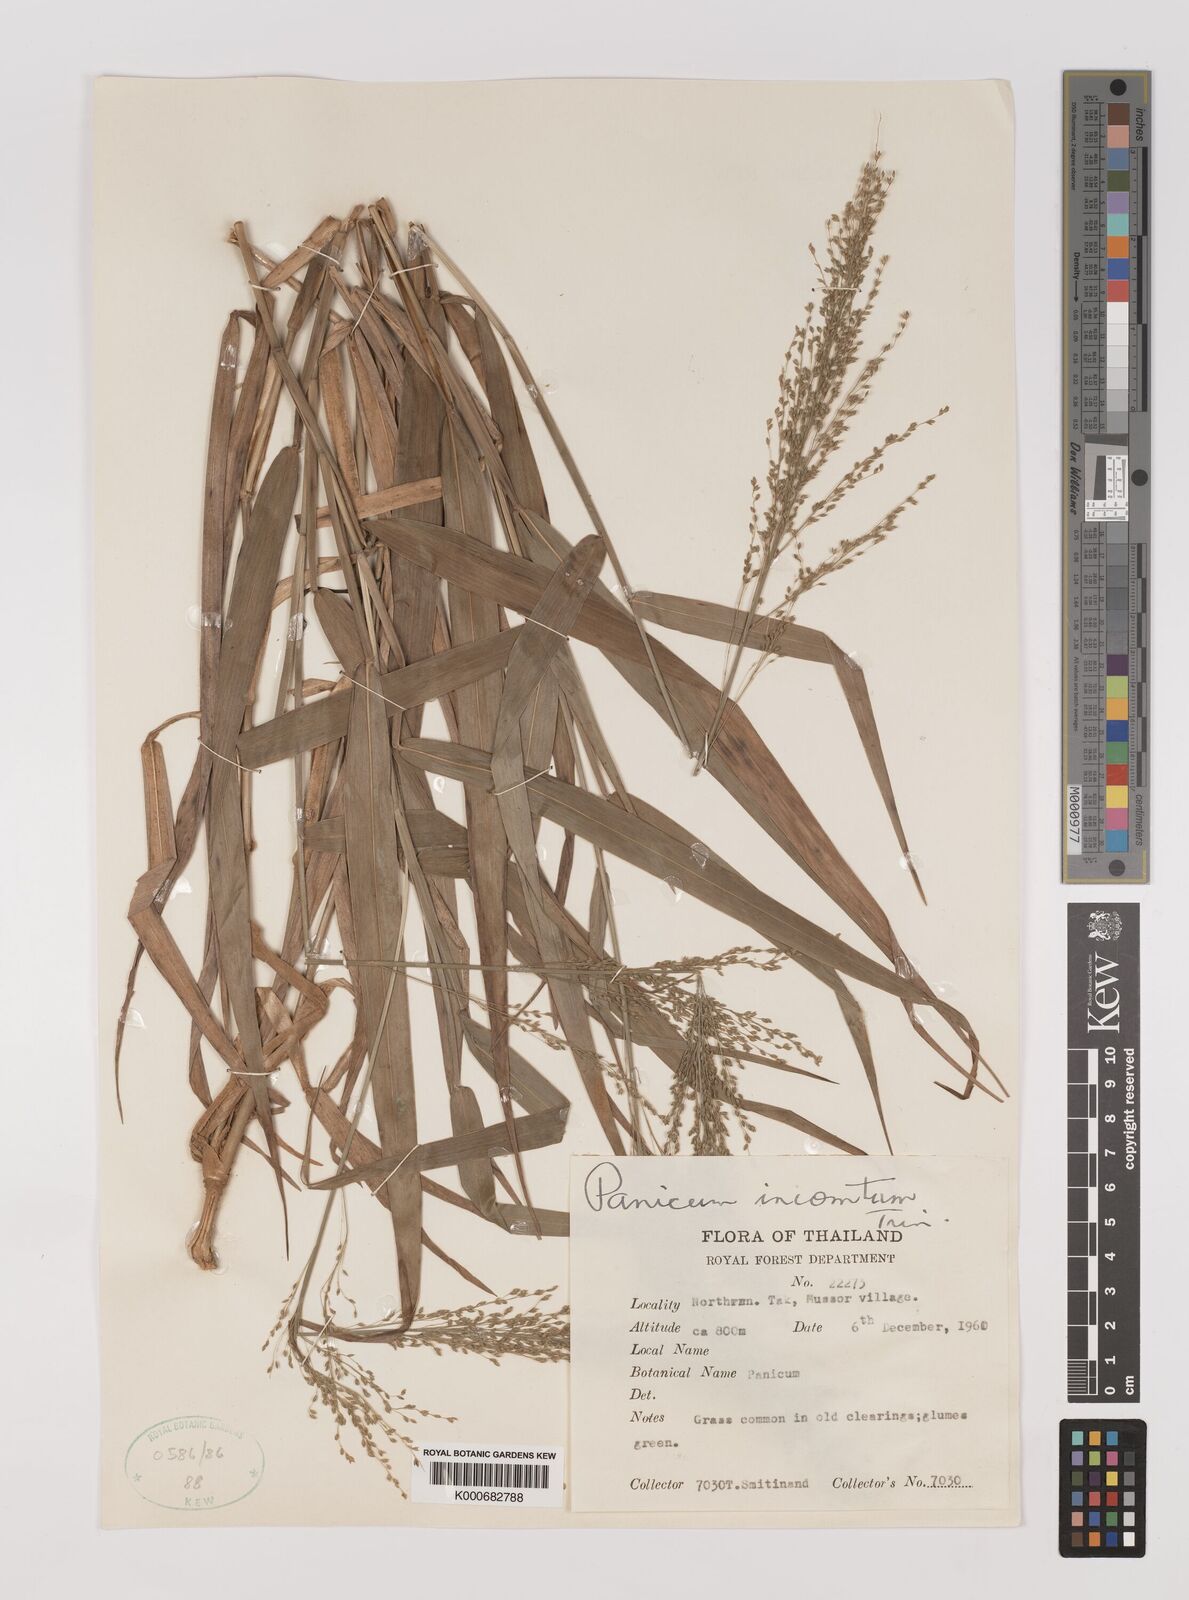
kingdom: Plantae
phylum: Tracheophyta
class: Liliopsida
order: Poales
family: Poaceae
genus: Panicum
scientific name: Panicum sarmentosum
